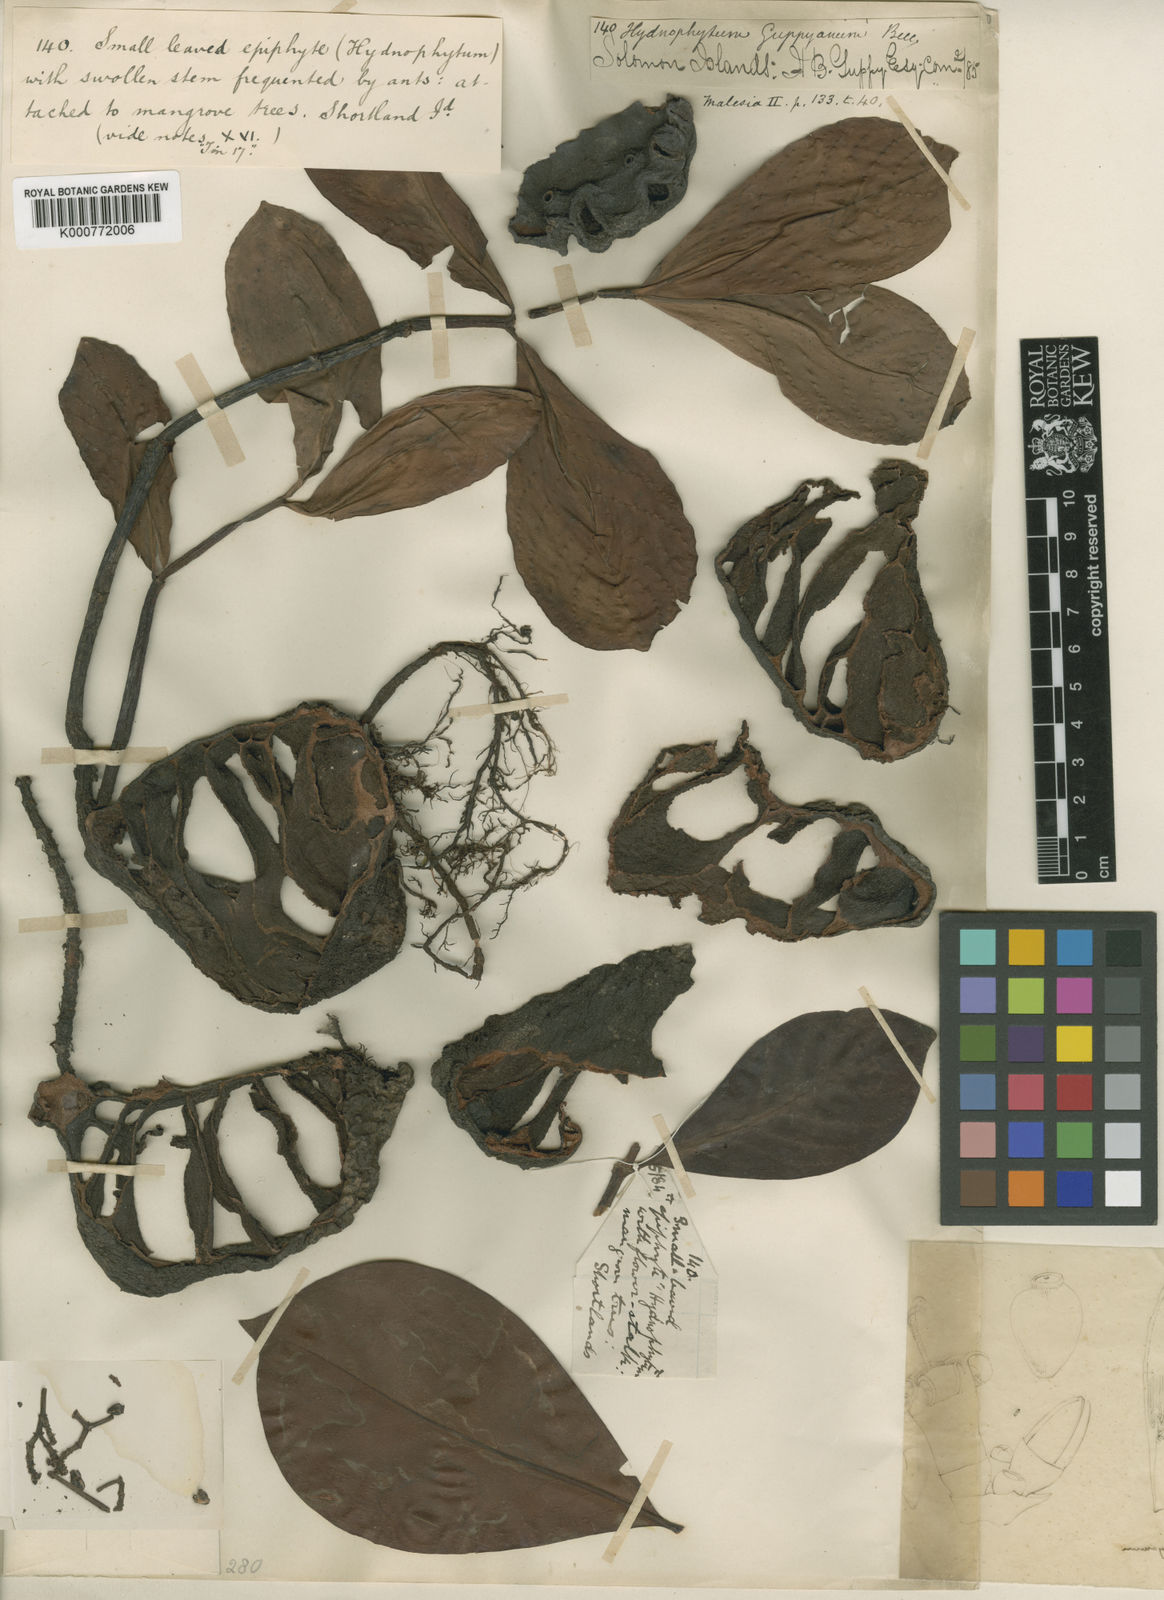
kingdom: Plantae
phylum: Tracheophyta
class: Magnoliopsida
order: Gentianales
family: Rubiaceae
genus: Squamellaria
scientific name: Squamellaria guppyana
